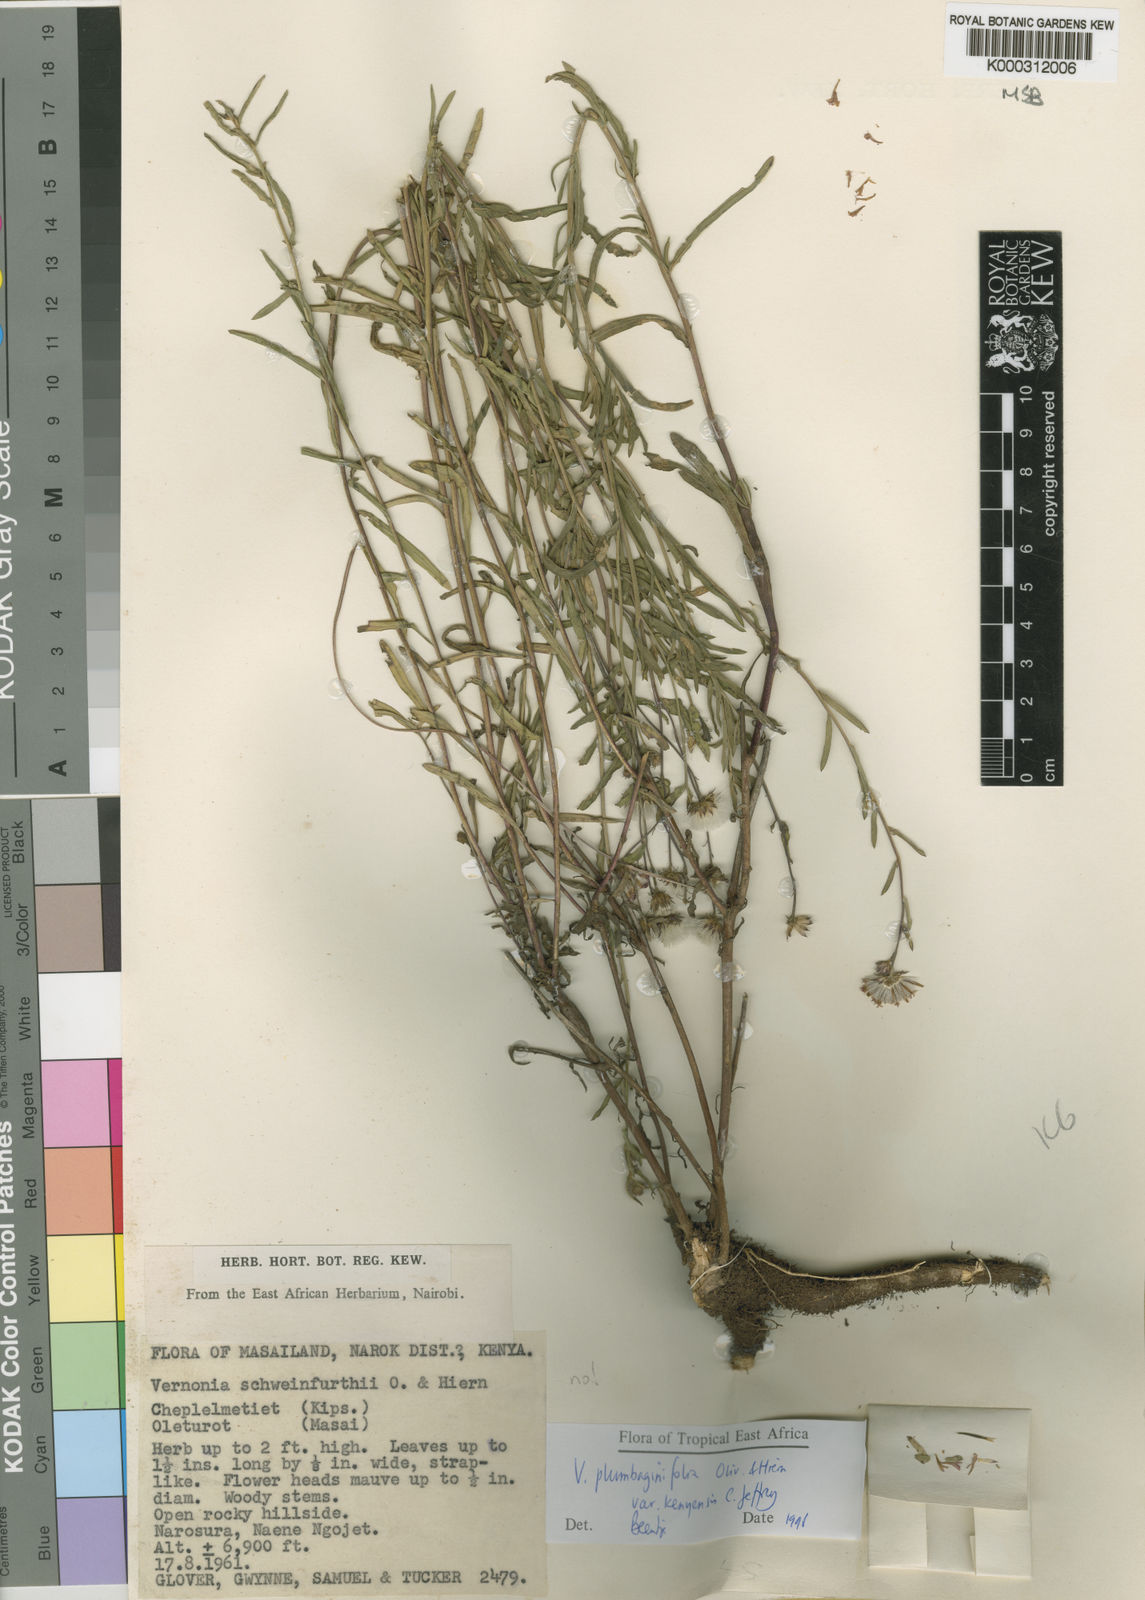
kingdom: Plantae
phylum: Tracheophyta
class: Magnoliopsida
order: Asterales
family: Asteraceae
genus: Vernonia
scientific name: Vernonia plumbaginifolia
